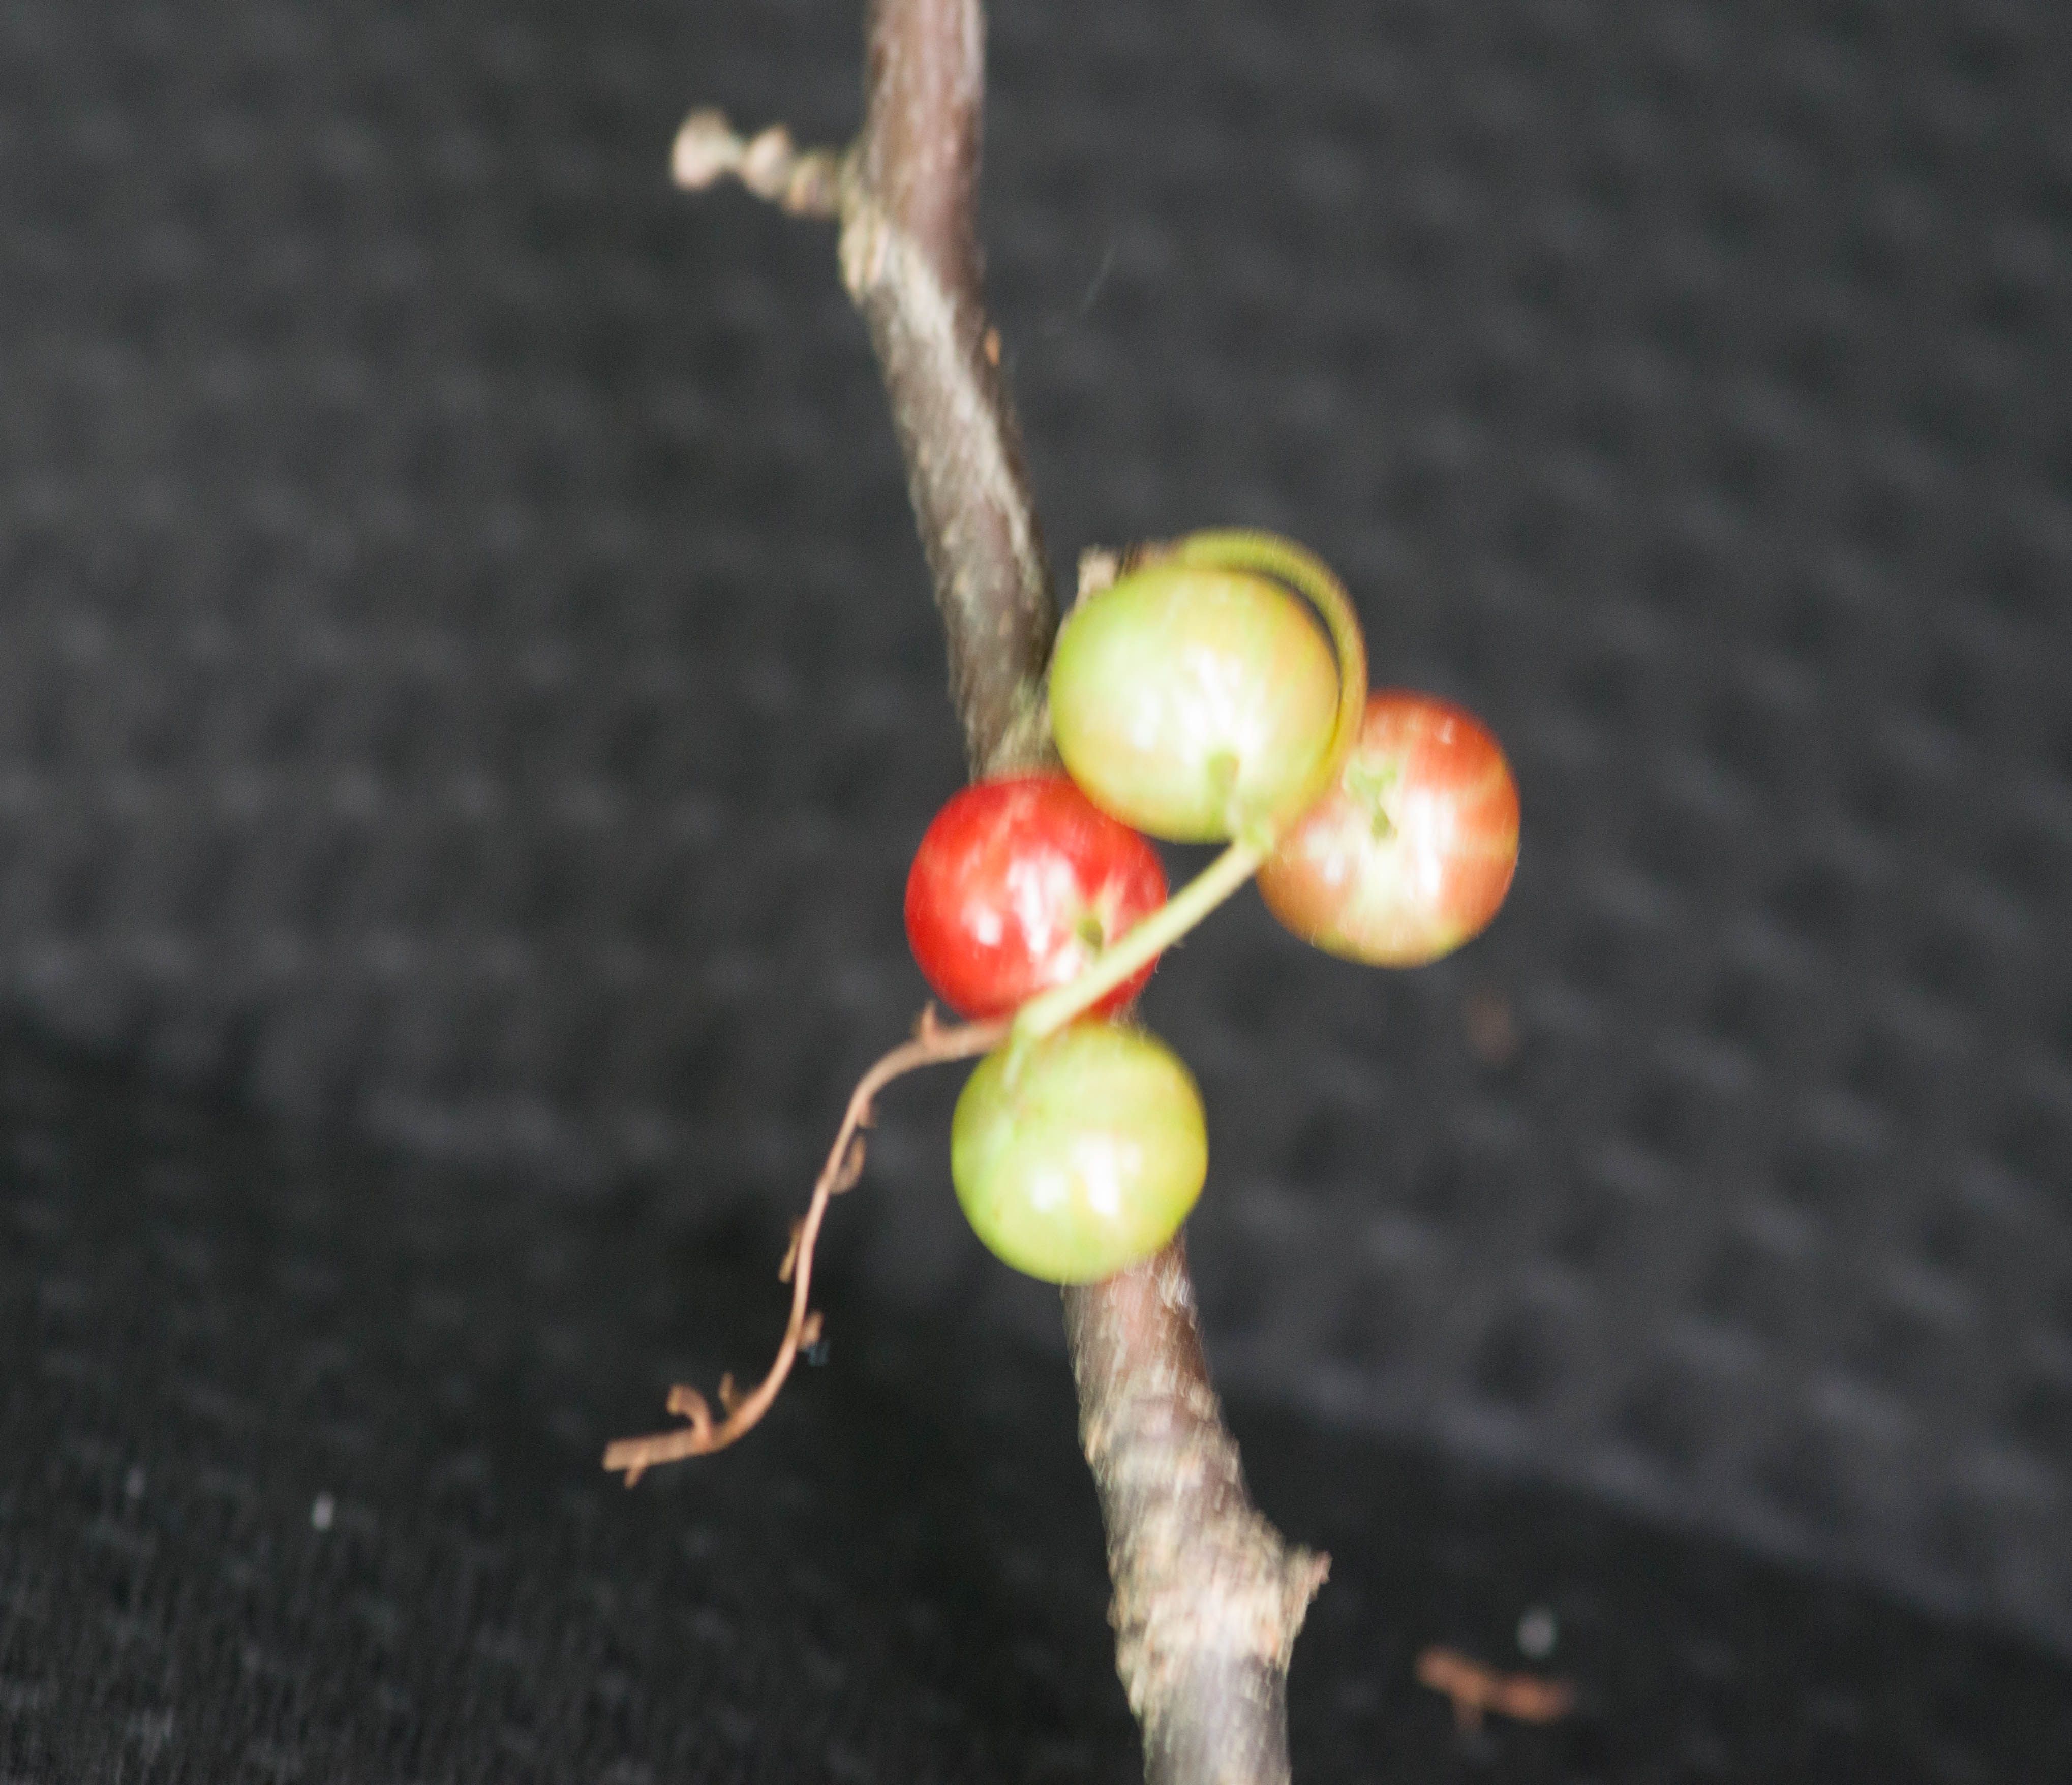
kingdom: Plantae
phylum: Tracheophyta
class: Magnoliopsida
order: Saxifragales
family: Grossulariaceae
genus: Ribes
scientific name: Ribes rubrum
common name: Red currant
